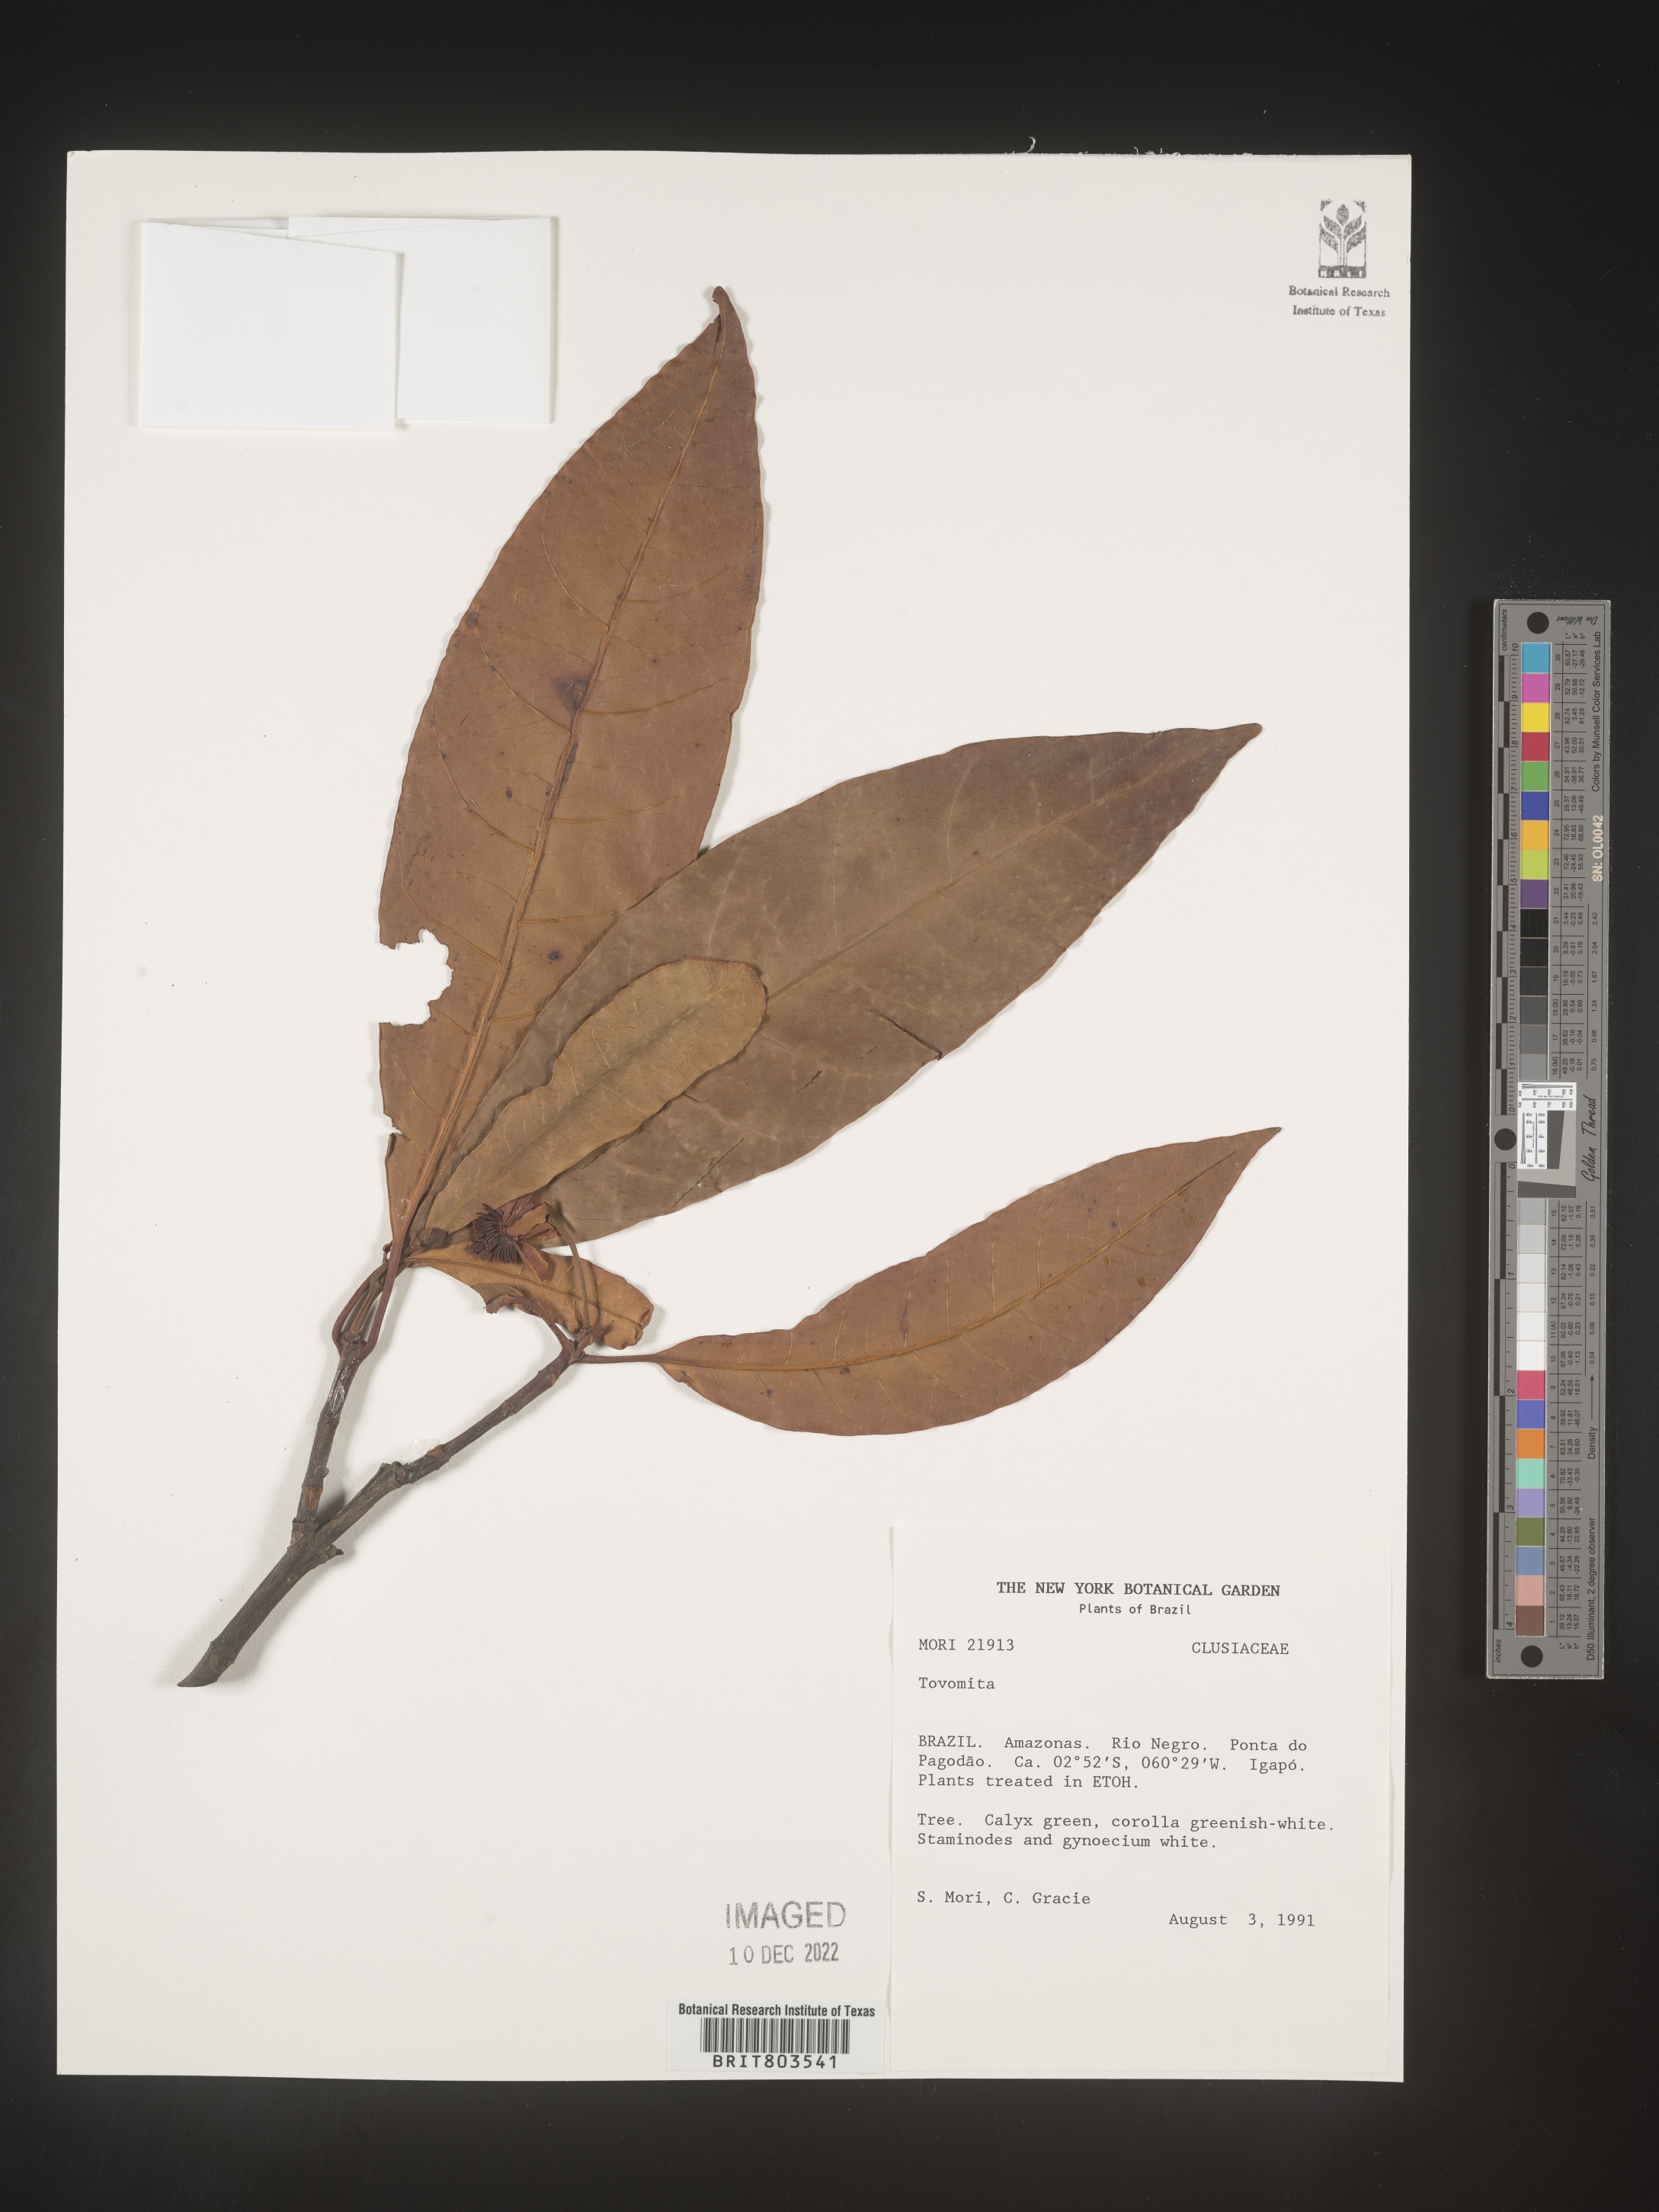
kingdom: Plantae
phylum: Tracheophyta
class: Magnoliopsida
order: Malpighiales
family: Clusiaceae
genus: Tovomita
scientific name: Tovomita
